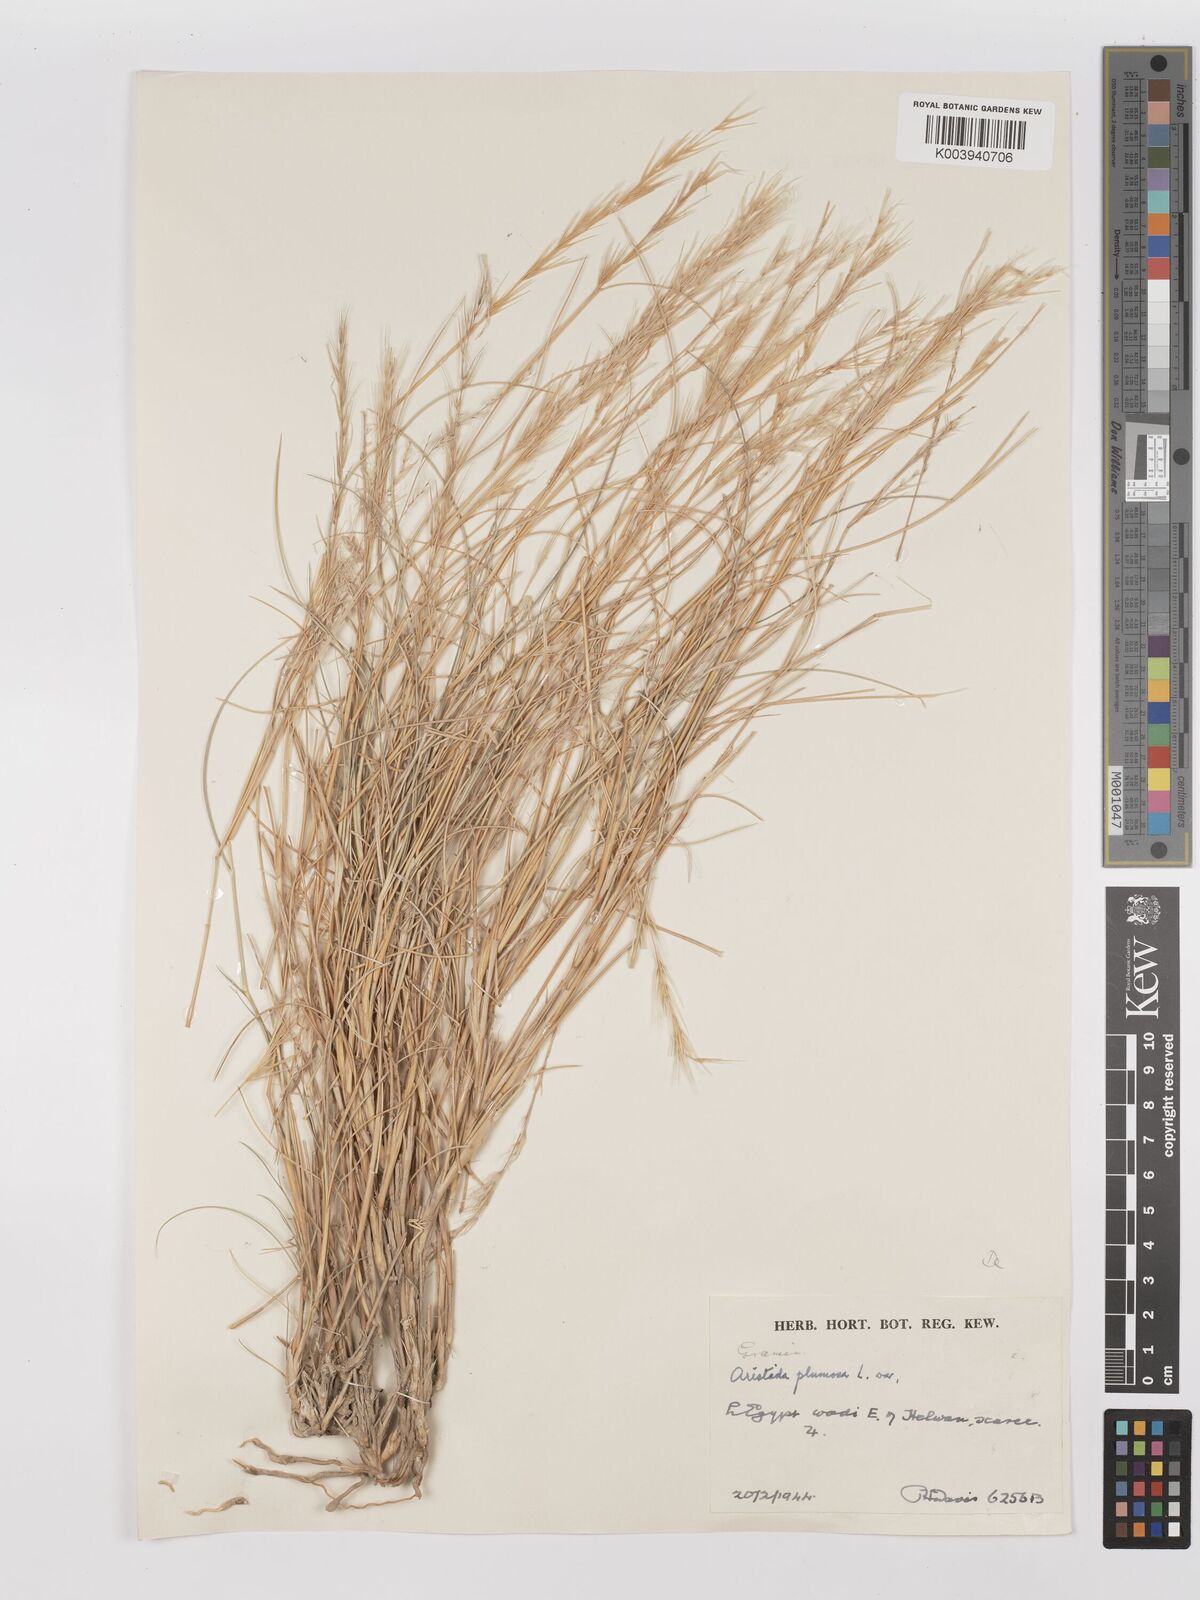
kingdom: Plantae
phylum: Tracheophyta
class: Liliopsida
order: Poales
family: Poaceae
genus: Stipagrostis
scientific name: Stipagrostis plumosa
